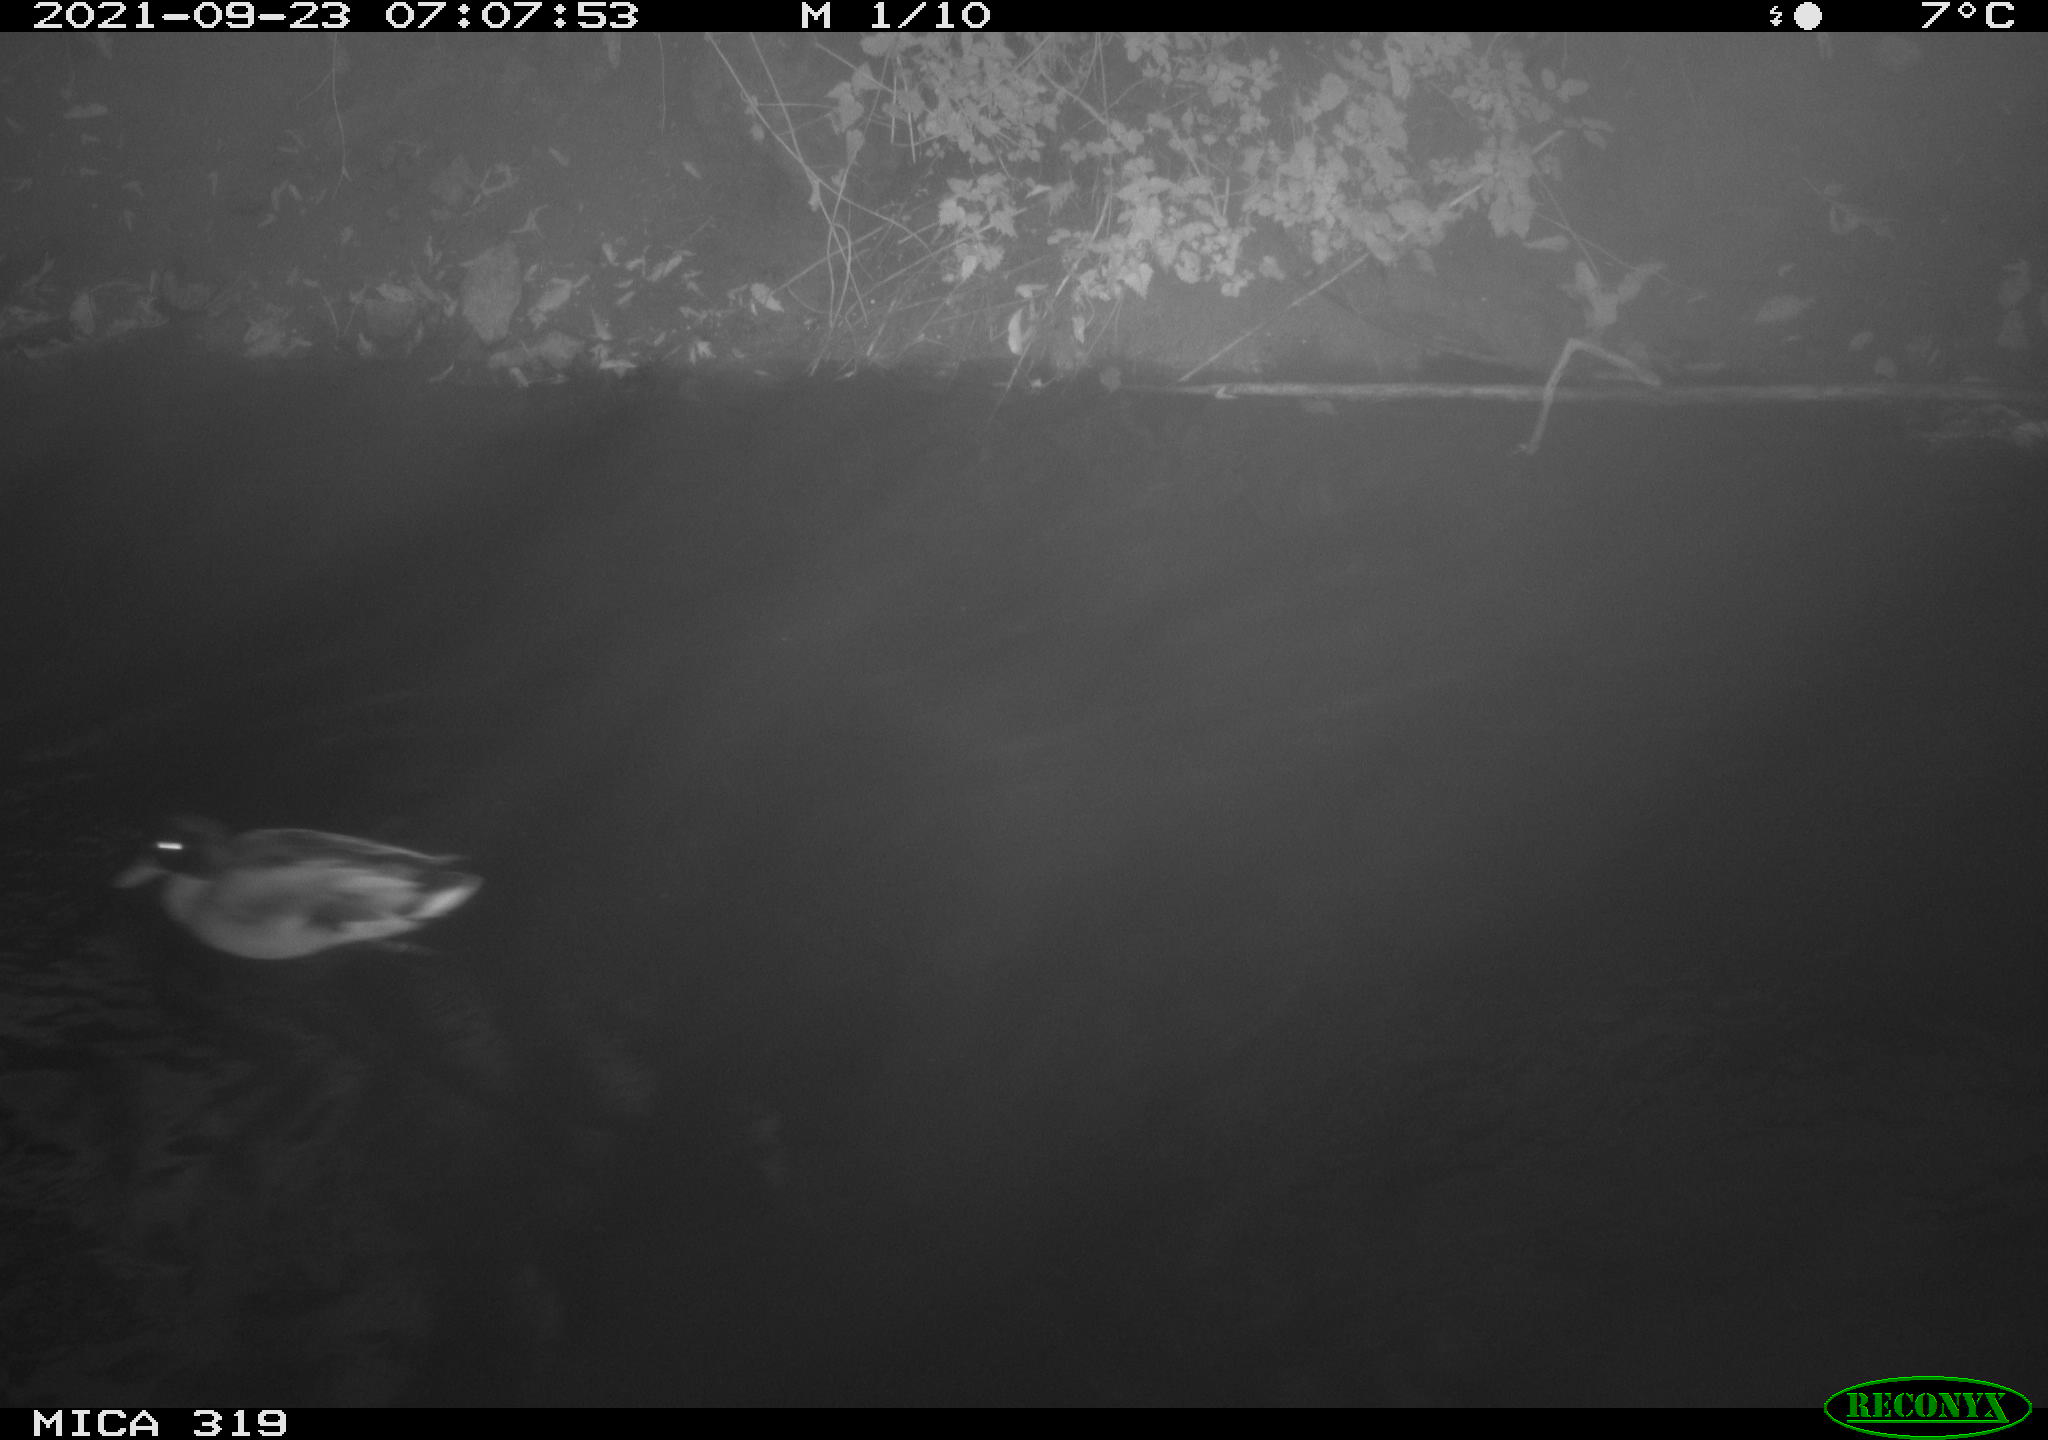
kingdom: Animalia
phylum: Chordata
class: Aves
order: Anseriformes
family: Anatidae
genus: Anas
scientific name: Anas platyrhynchos
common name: Mallard
